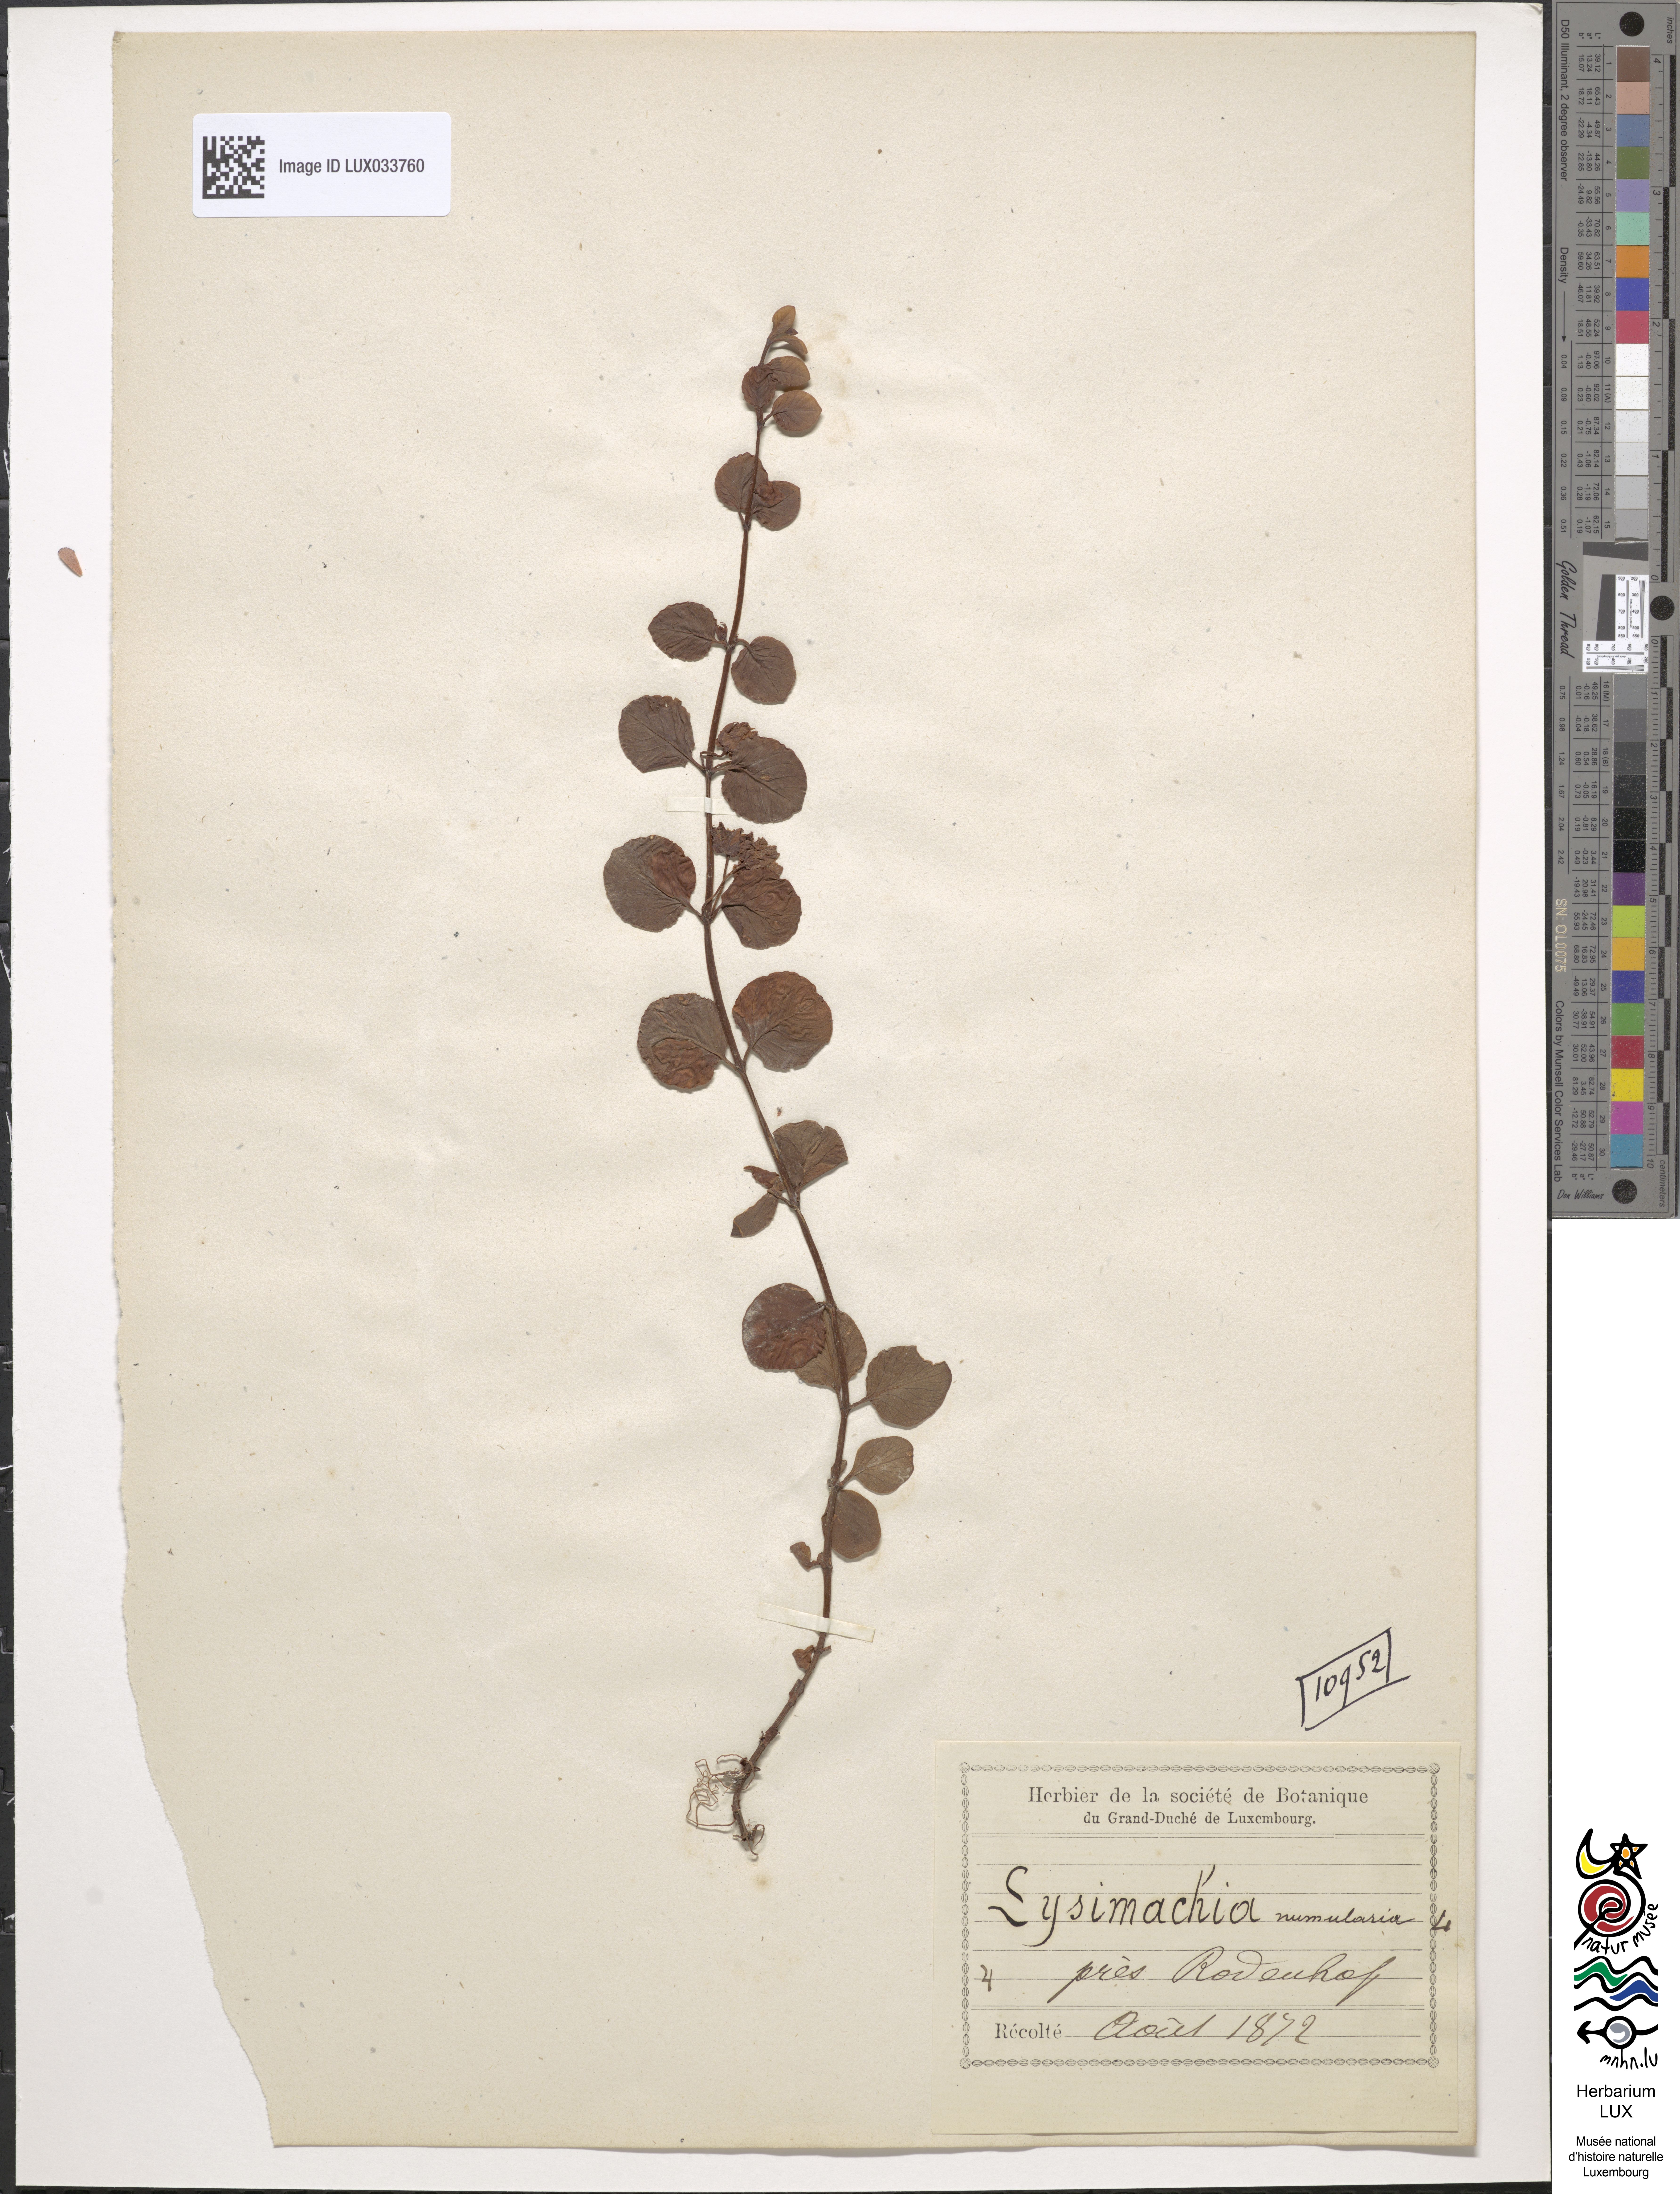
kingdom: Plantae
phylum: Tracheophyta
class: Magnoliopsida
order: Ericales
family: Primulaceae
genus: Lysimachia
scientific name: Lysimachia nummularia
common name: Moneywort
